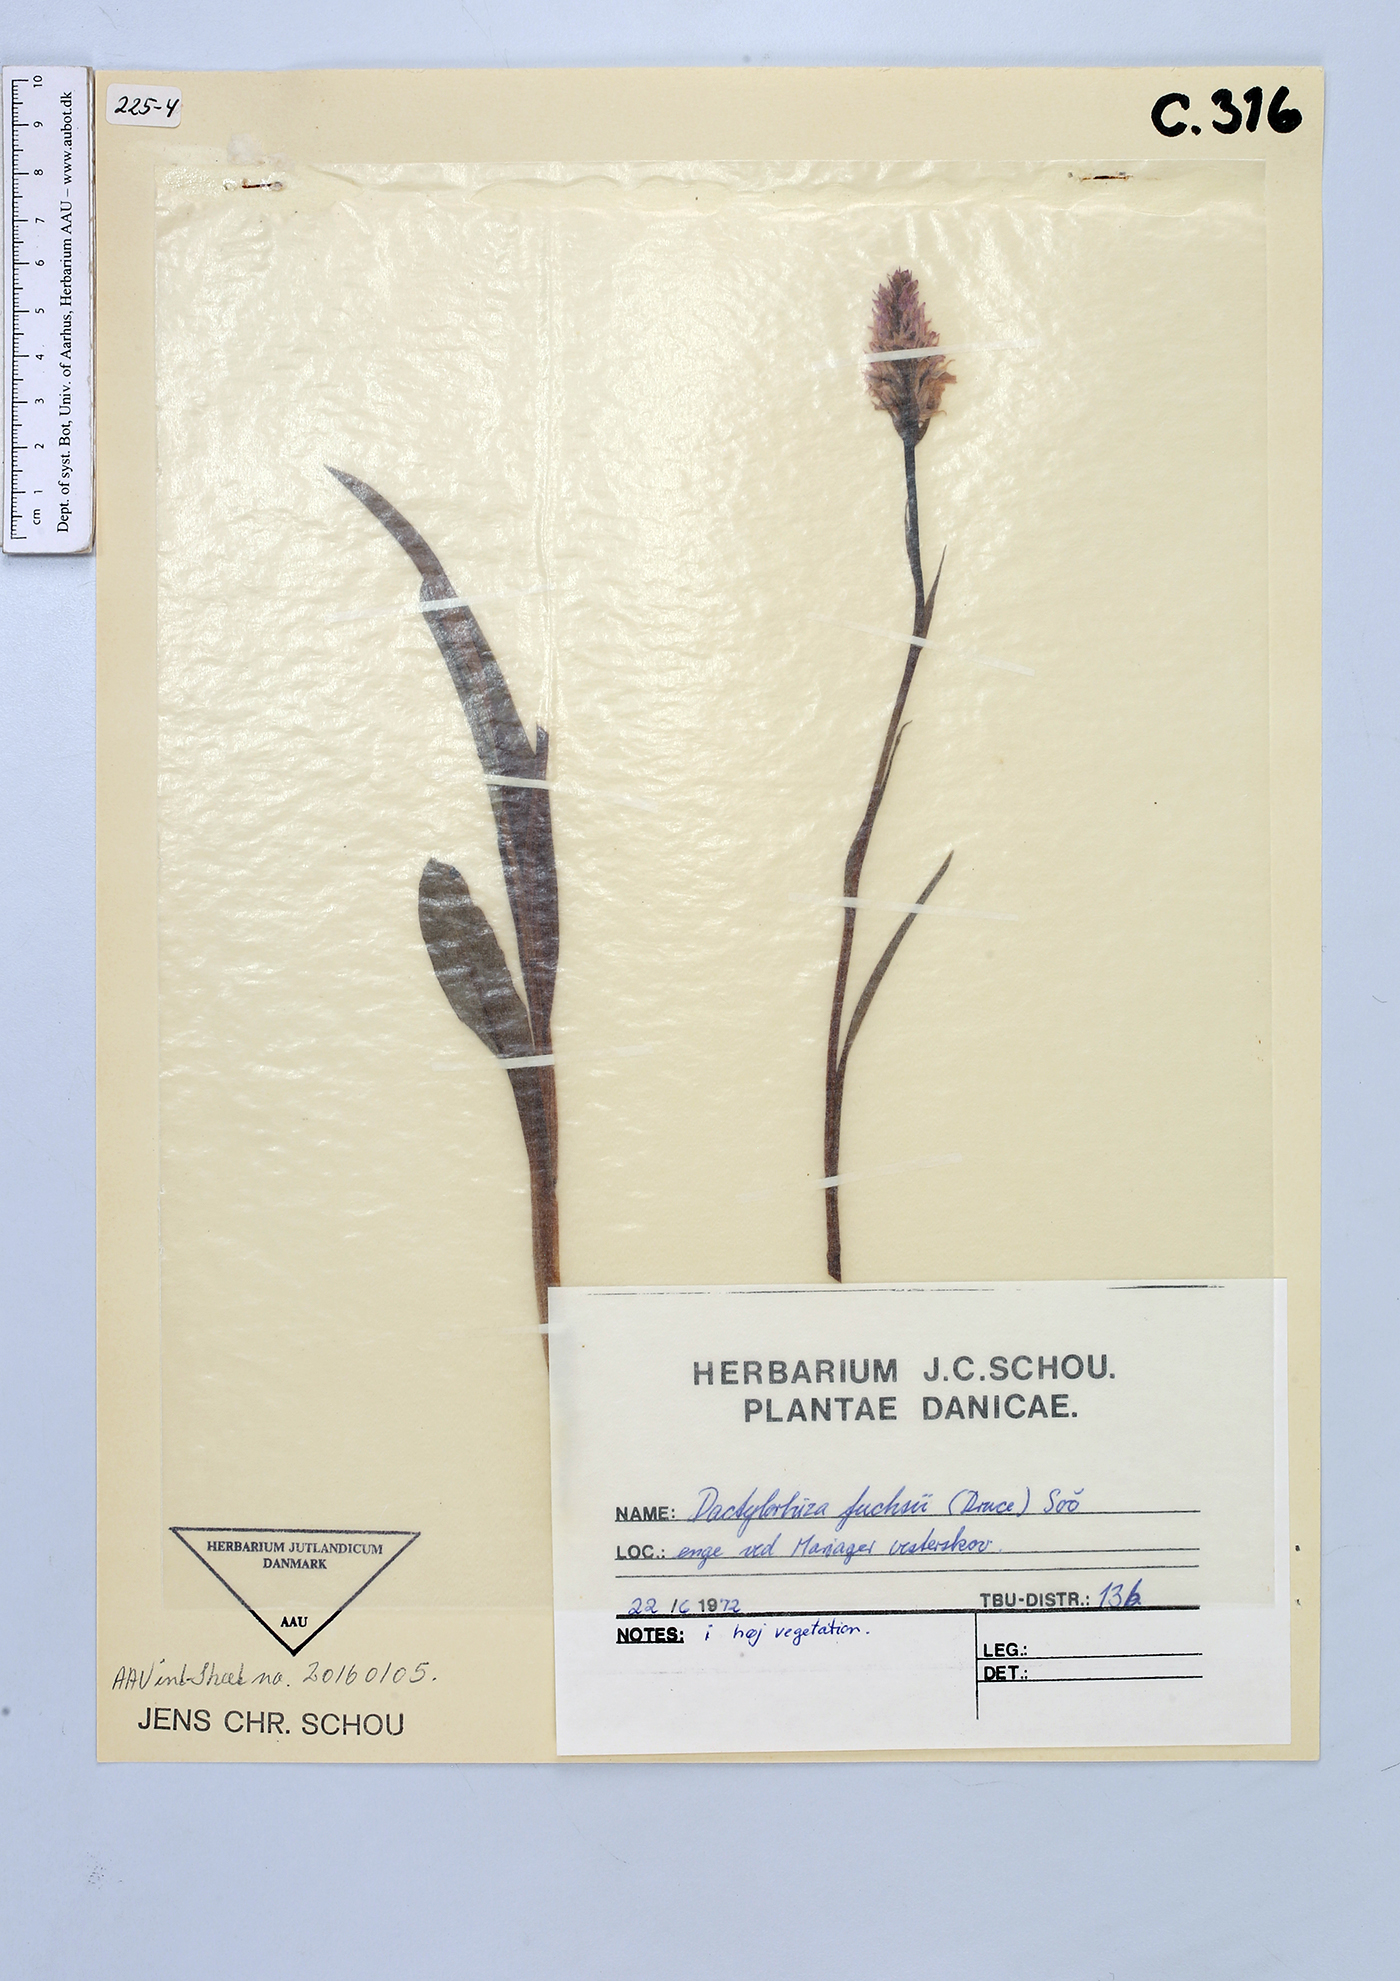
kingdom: Plantae
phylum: Tracheophyta
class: Liliopsida
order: Asparagales
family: Orchidaceae
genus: Dactylorhiza
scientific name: Dactylorhiza maculata
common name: Heath spotted-orchid
